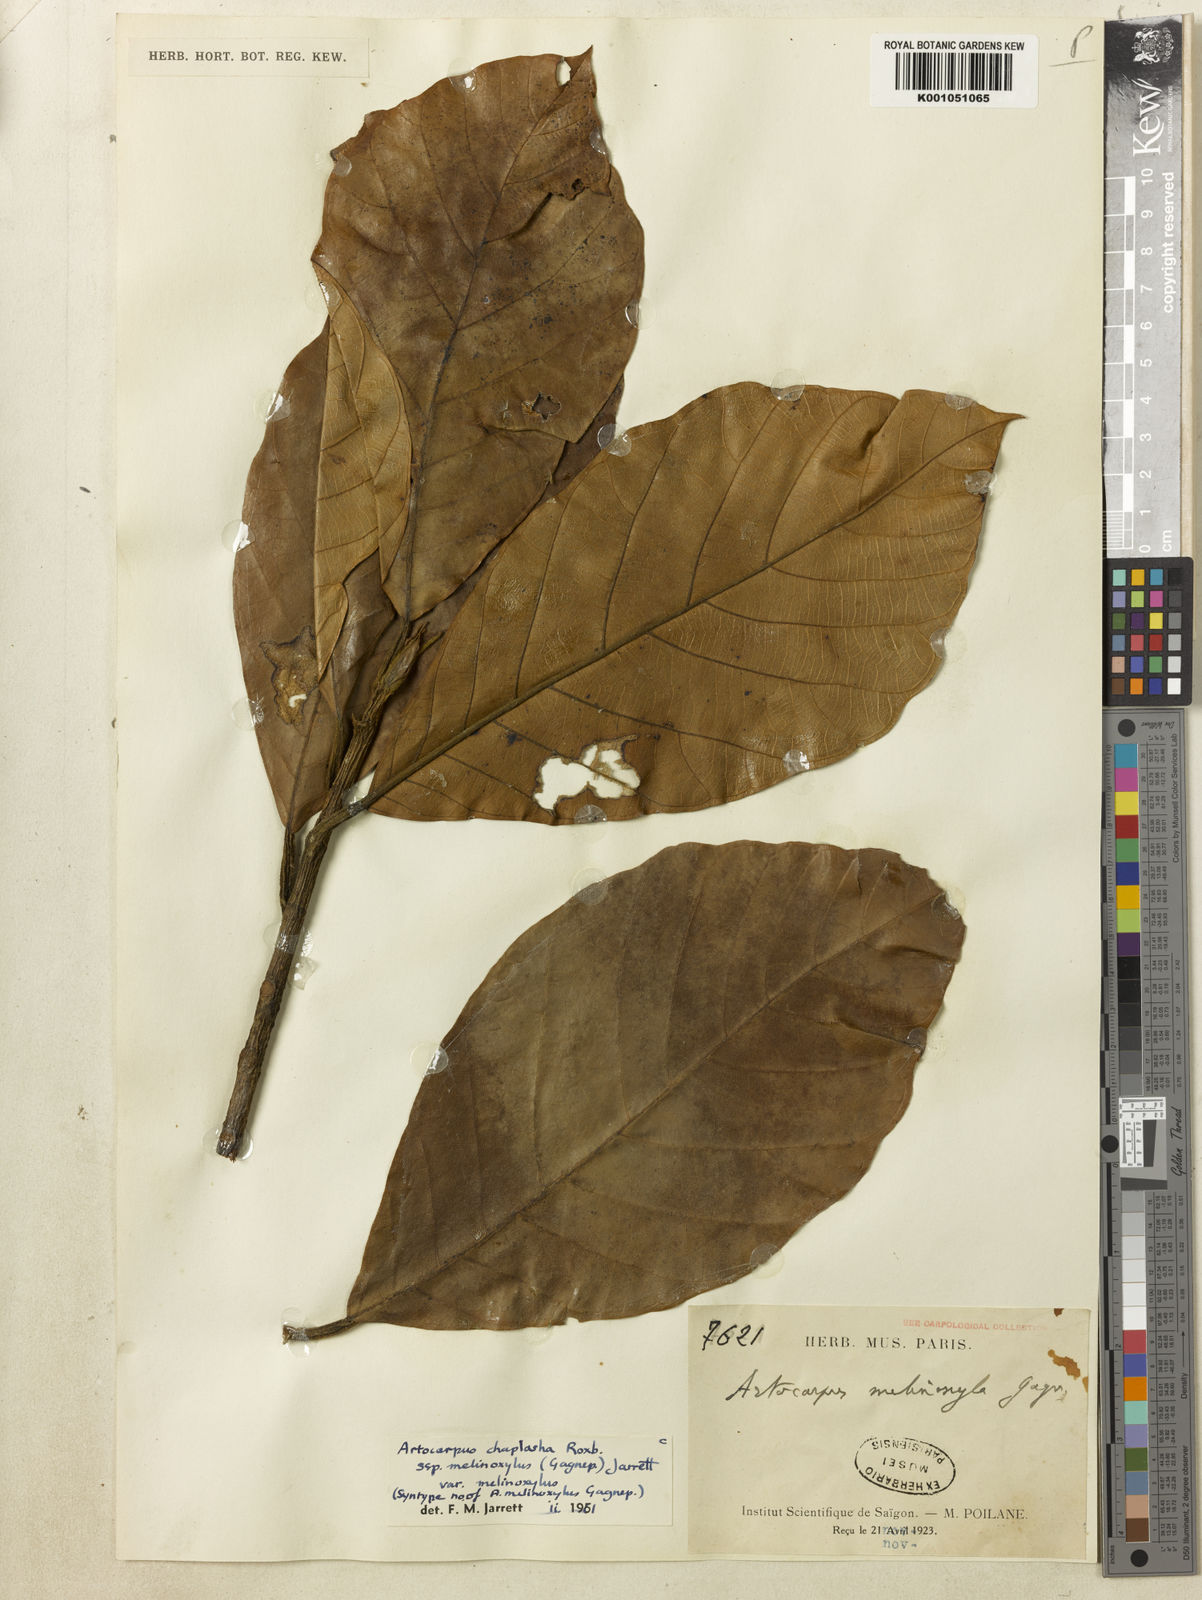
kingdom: Plantae
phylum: Tracheophyta
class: Magnoliopsida
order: Rosales
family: Moraceae
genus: Artocarpus
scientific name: Artocarpus chama
